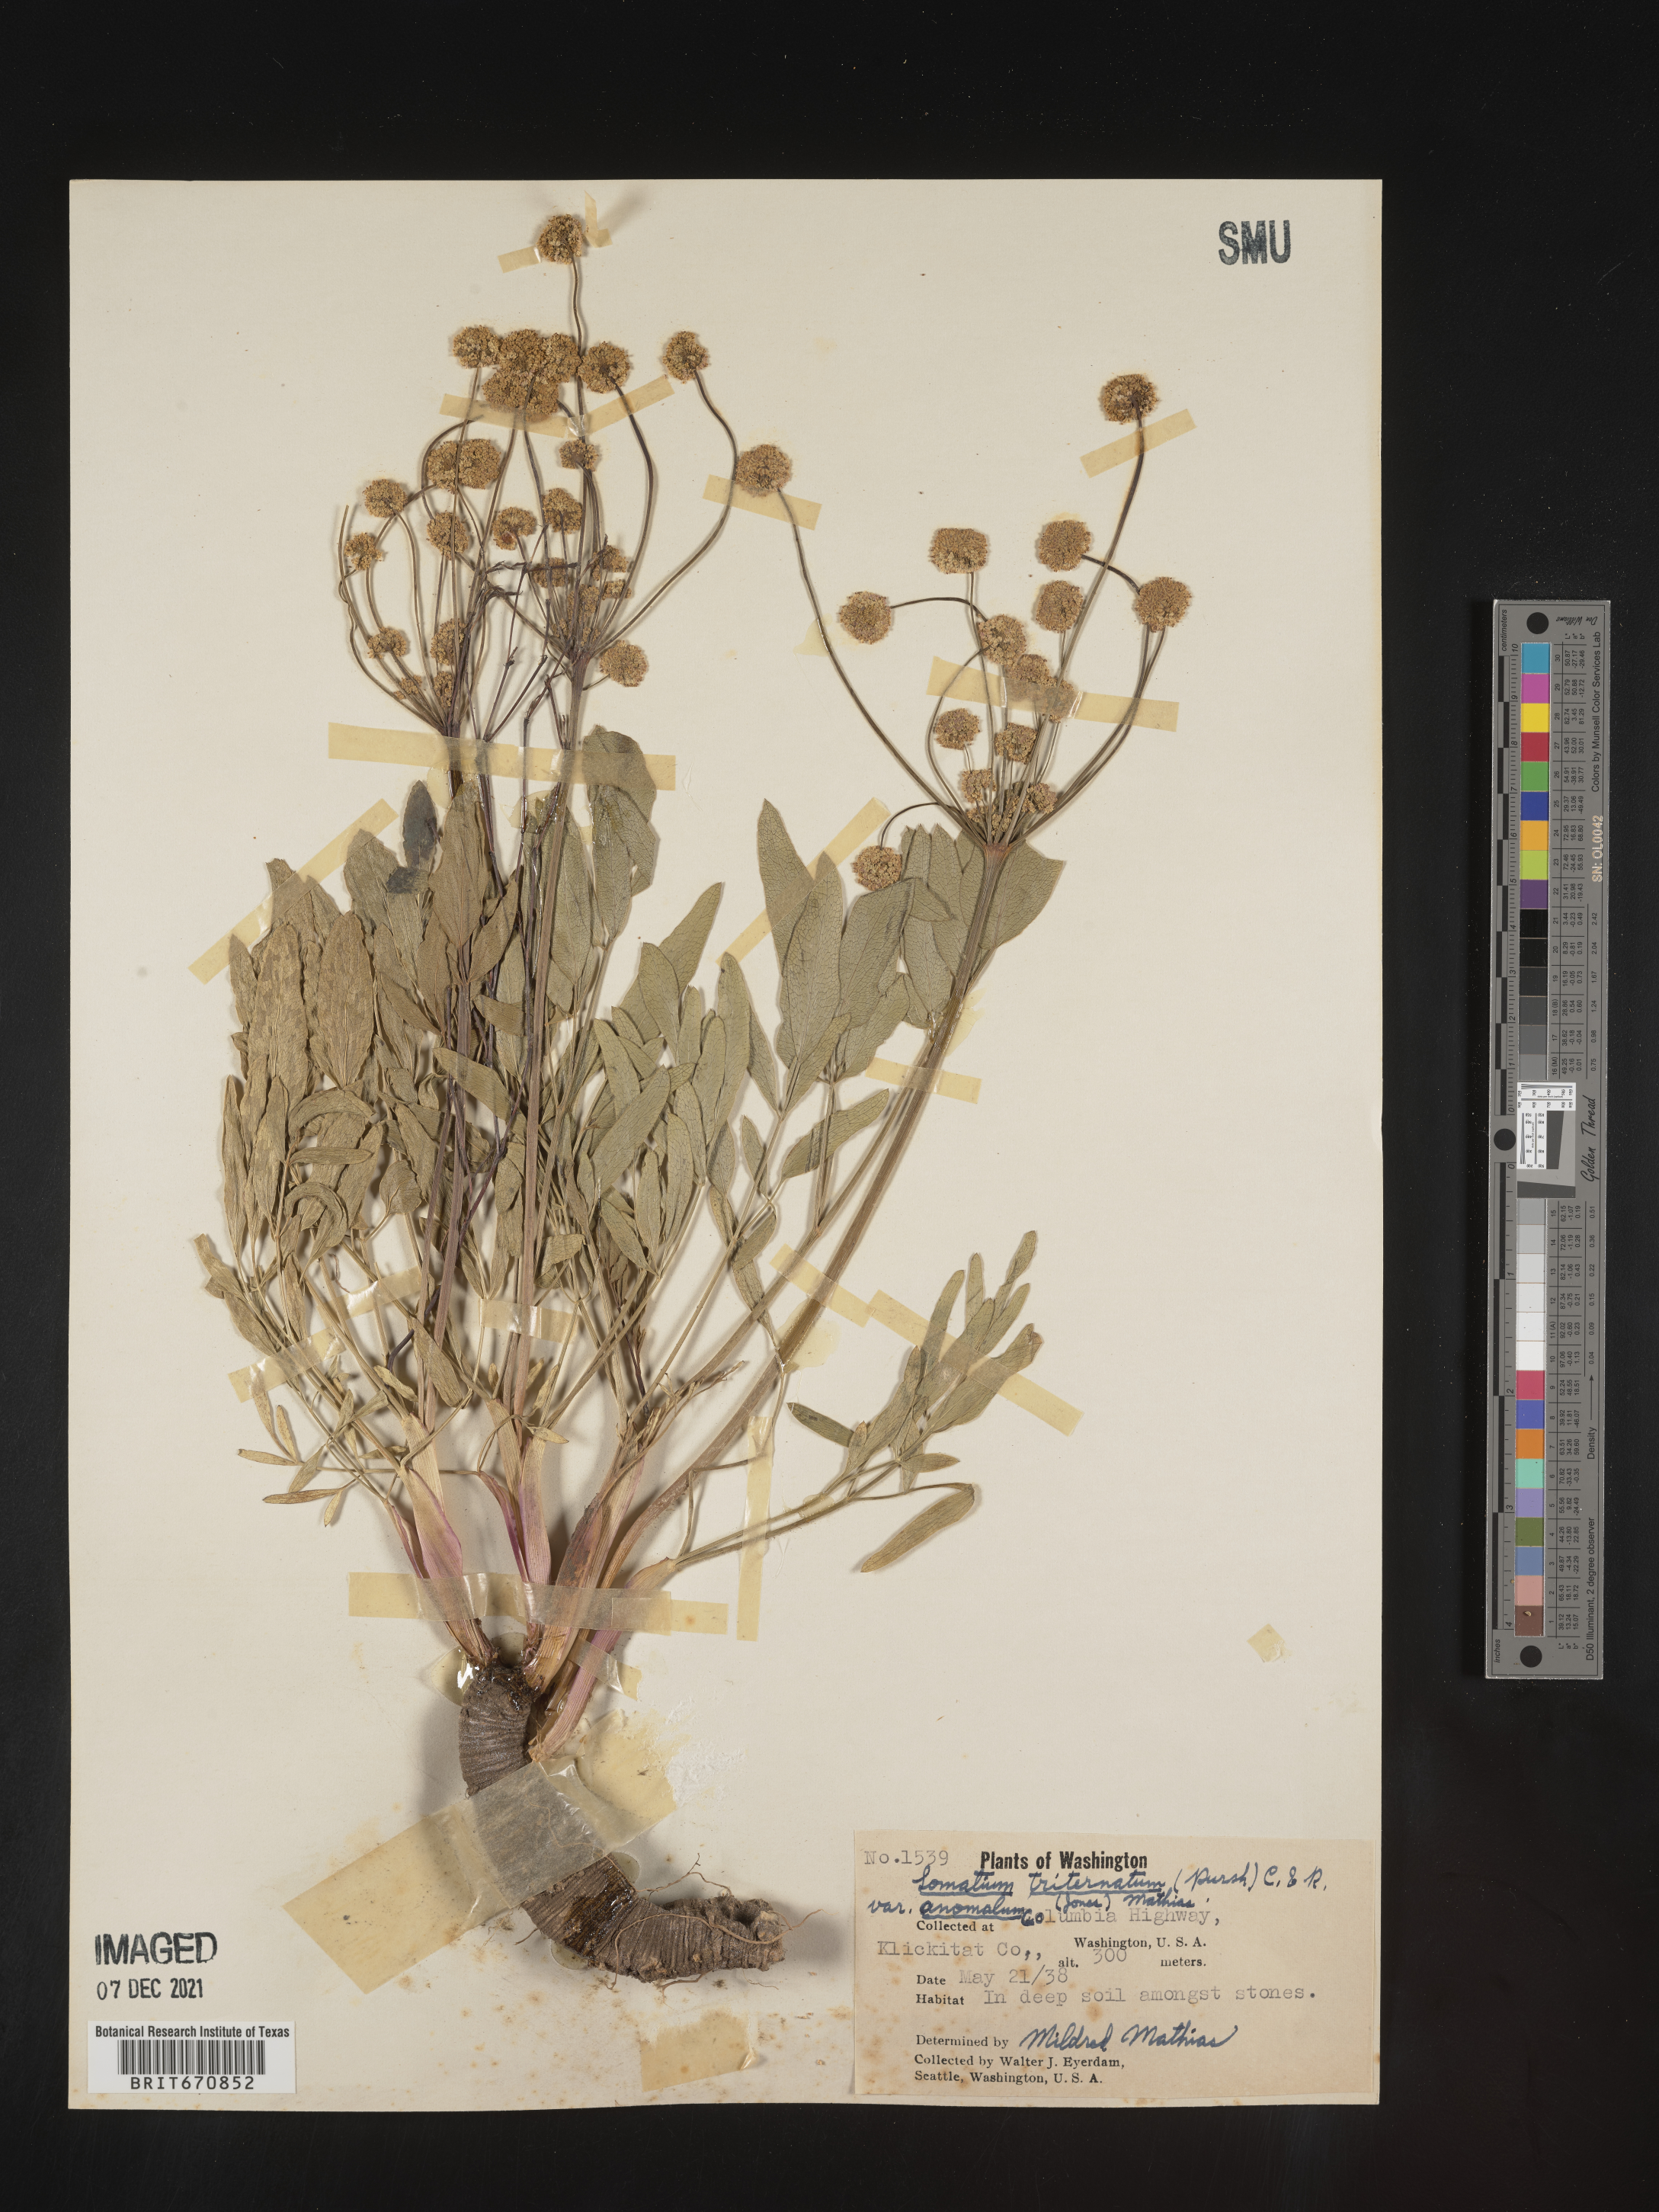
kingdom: Plantae
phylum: Tracheophyta
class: Magnoliopsida
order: Apiales
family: Apiaceae
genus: Lomatium
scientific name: Lomatium triternatum
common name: Ternate lomatium
